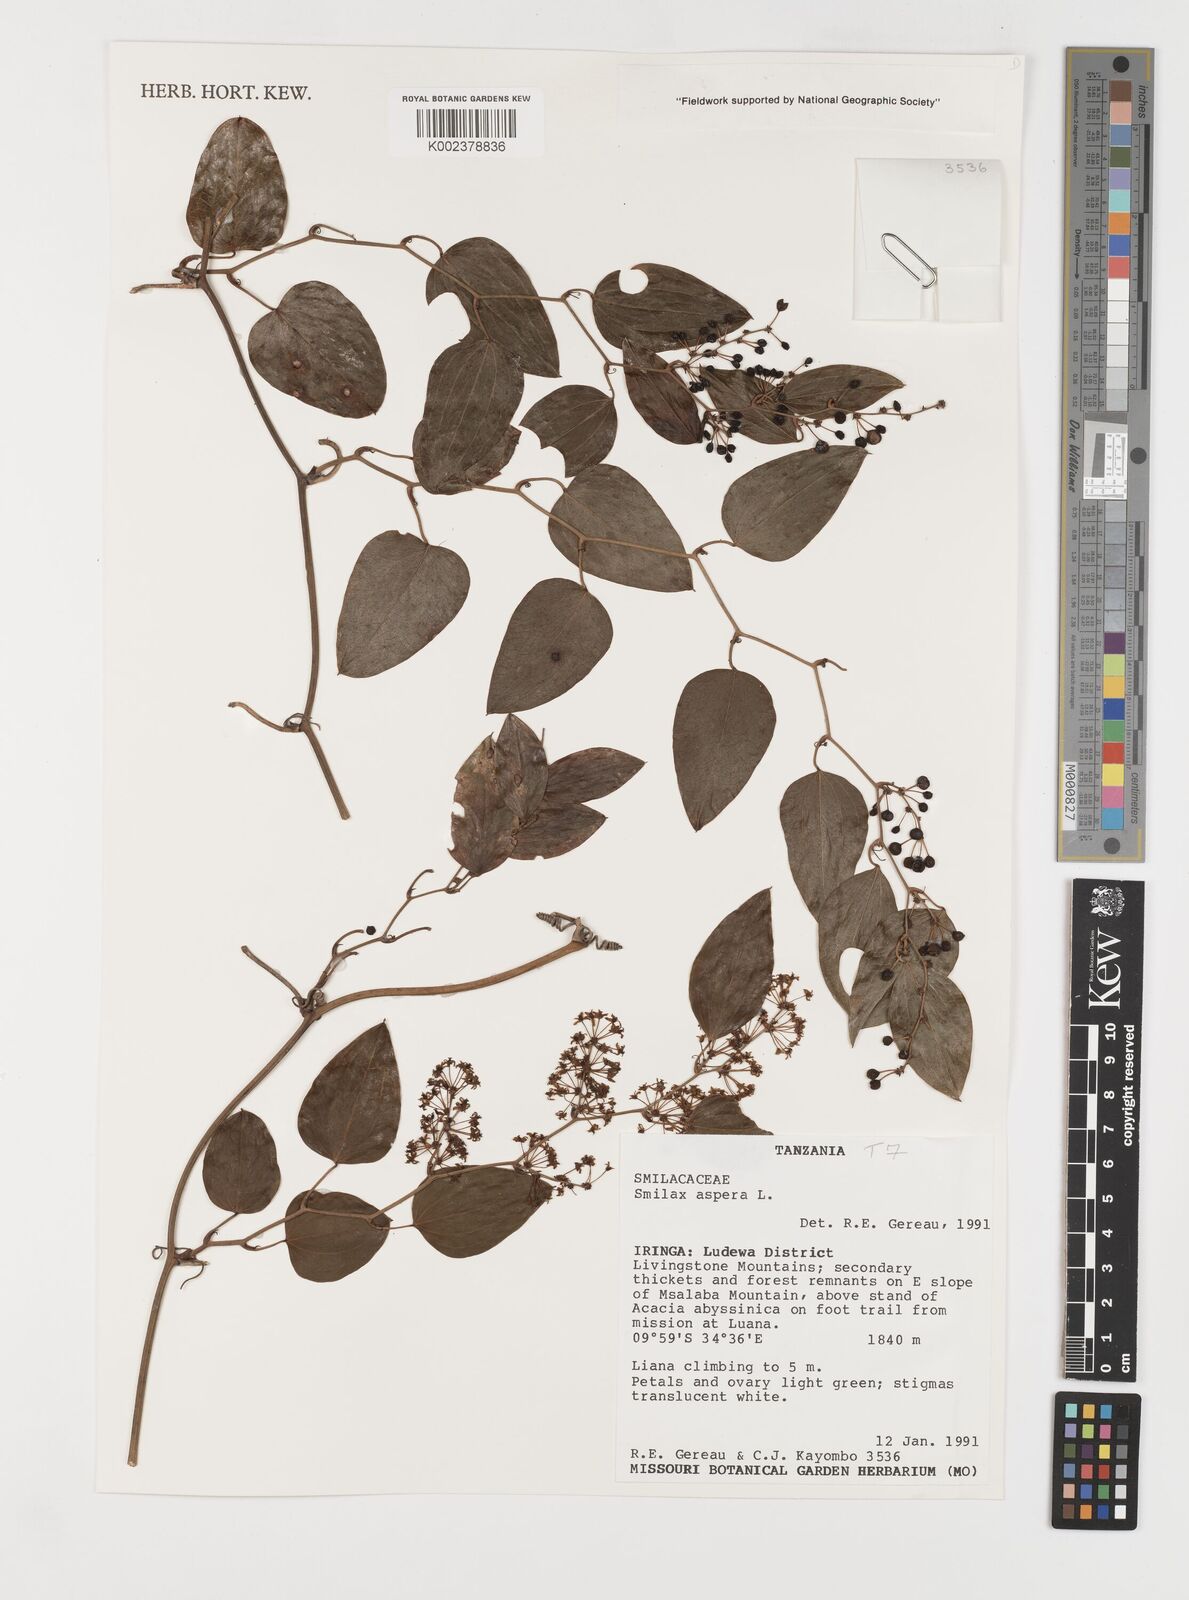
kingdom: Plantae
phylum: Tracheophyta
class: Liliopsida
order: Liliales
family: Smilacaceae
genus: Smilax
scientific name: Smilax aspera
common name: Common smilax
